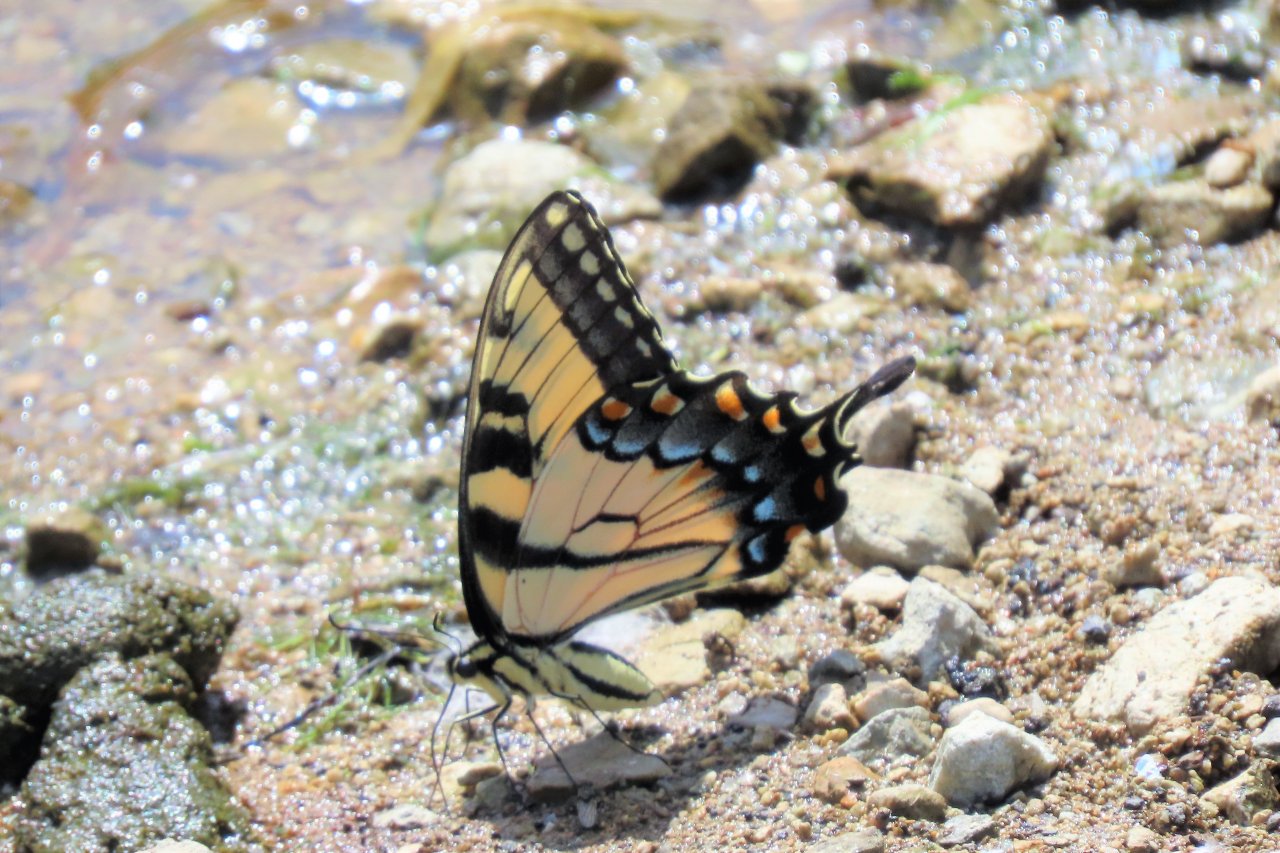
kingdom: Animalia
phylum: Arthropoda
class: Insecta
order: Lepidoptera
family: Papilionidae
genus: Pterourus
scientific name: Pterourus glaucus
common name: Eastern Tiger Swallowtail
